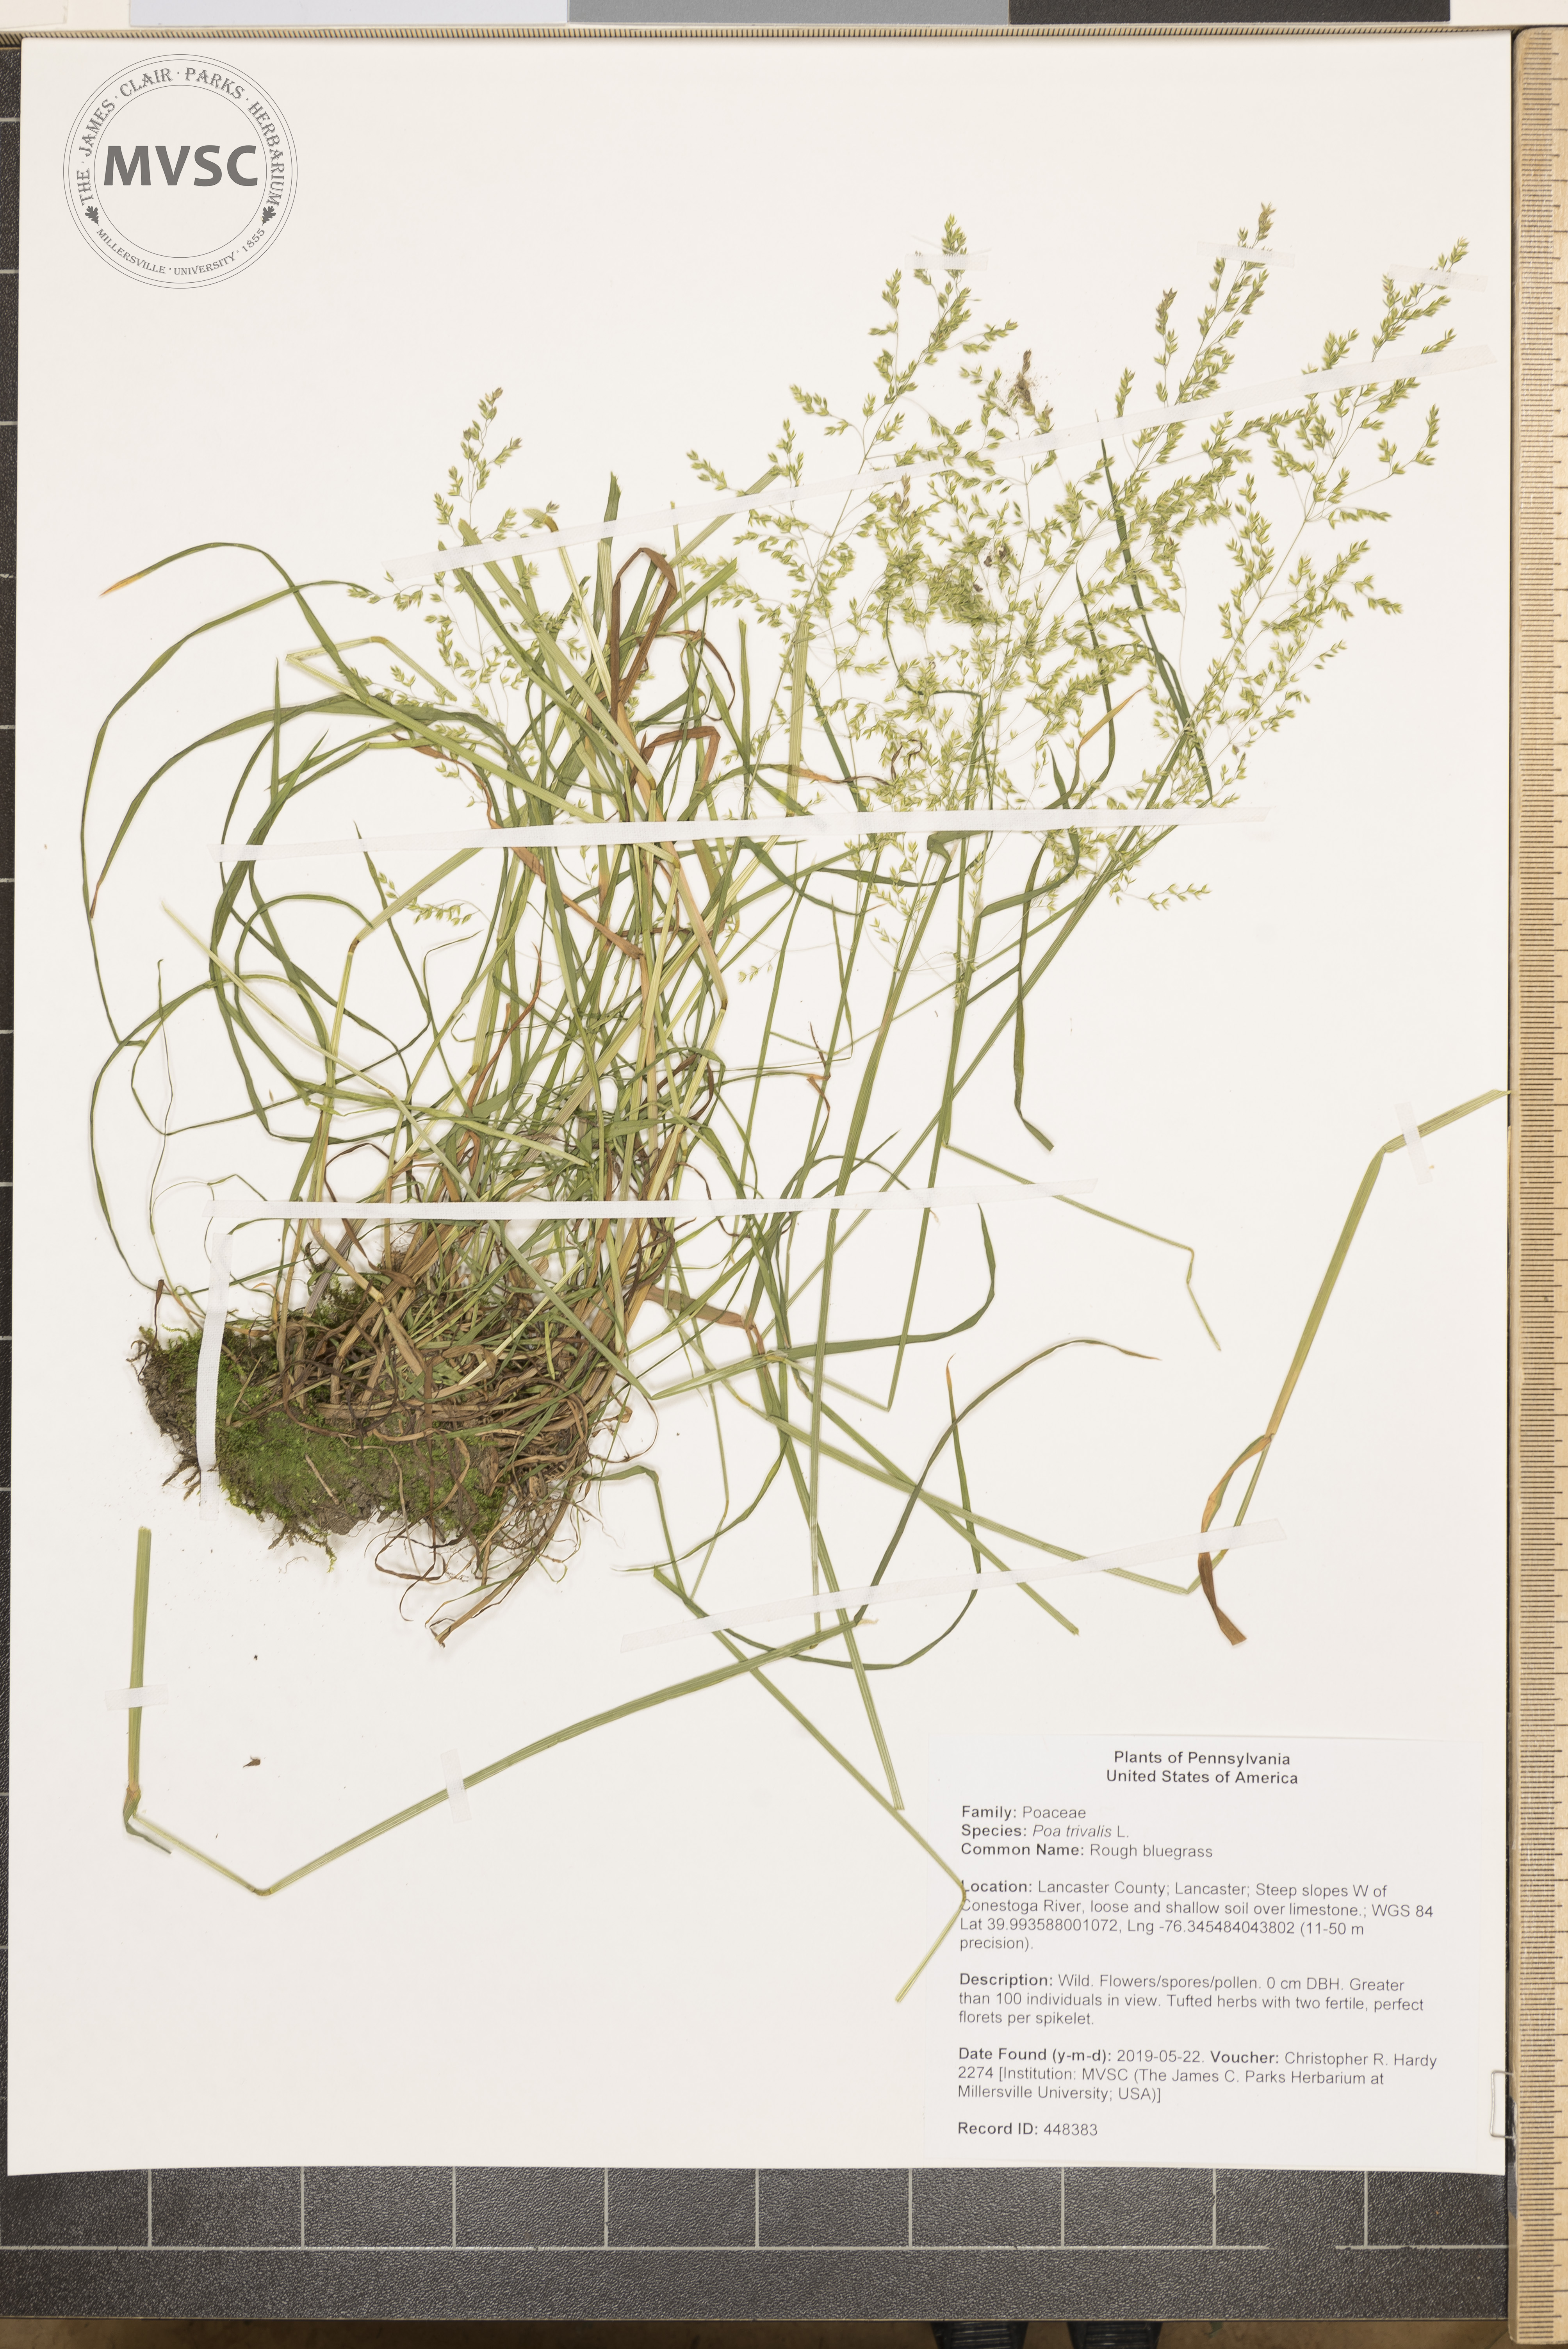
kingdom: Plantae
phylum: Tracheophyta
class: Liliopsida
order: Poales
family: Poaceae
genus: Poa
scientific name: Poa trivialis
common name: Rough bluegrass
